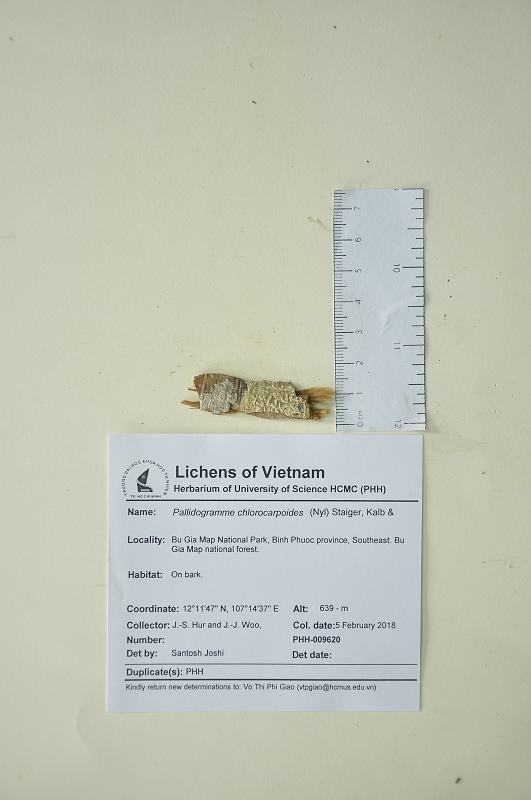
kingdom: Fungi
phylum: Ascomycota
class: Lecanoromycetes
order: Ostropales
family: Graphidaceae
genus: Pallidogramme
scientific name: Pallidogramme chlorocarpoides
